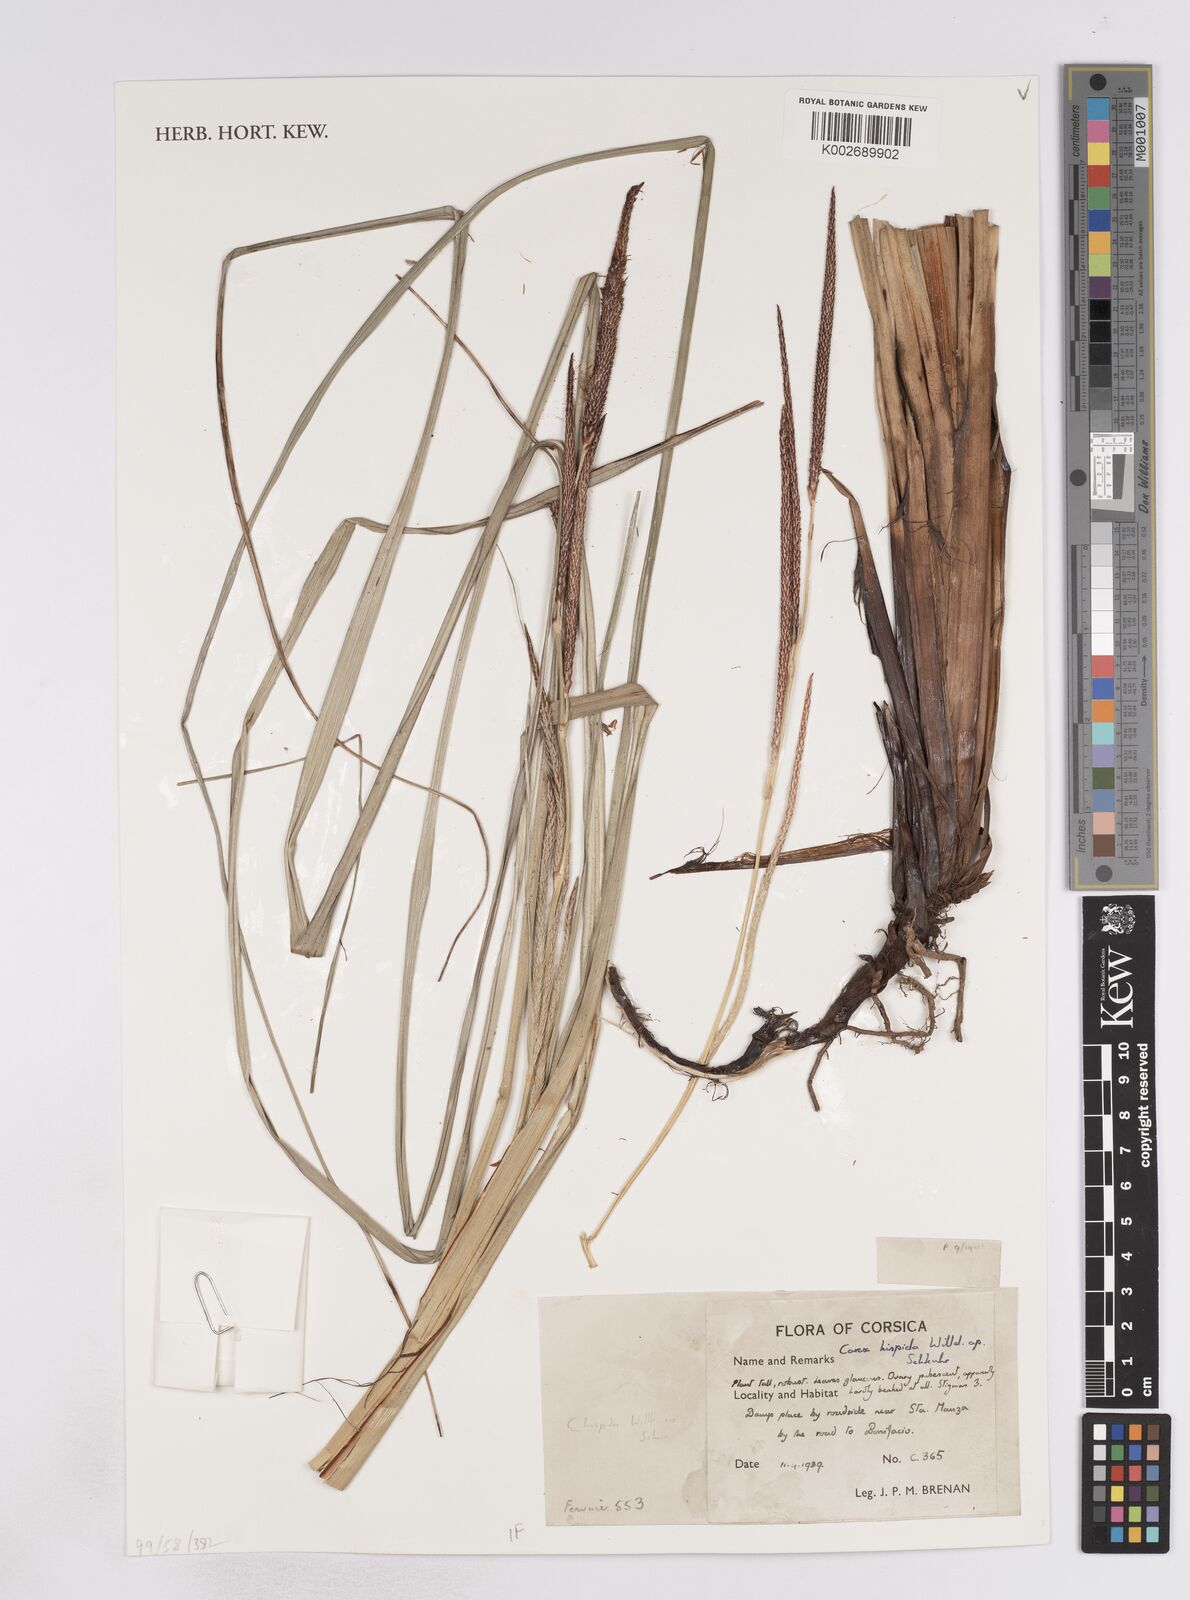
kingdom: Plantae
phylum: Tracheophyta
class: Liliopsida
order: Poales
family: Cyperaceae
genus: Carex
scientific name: Carex hispida
